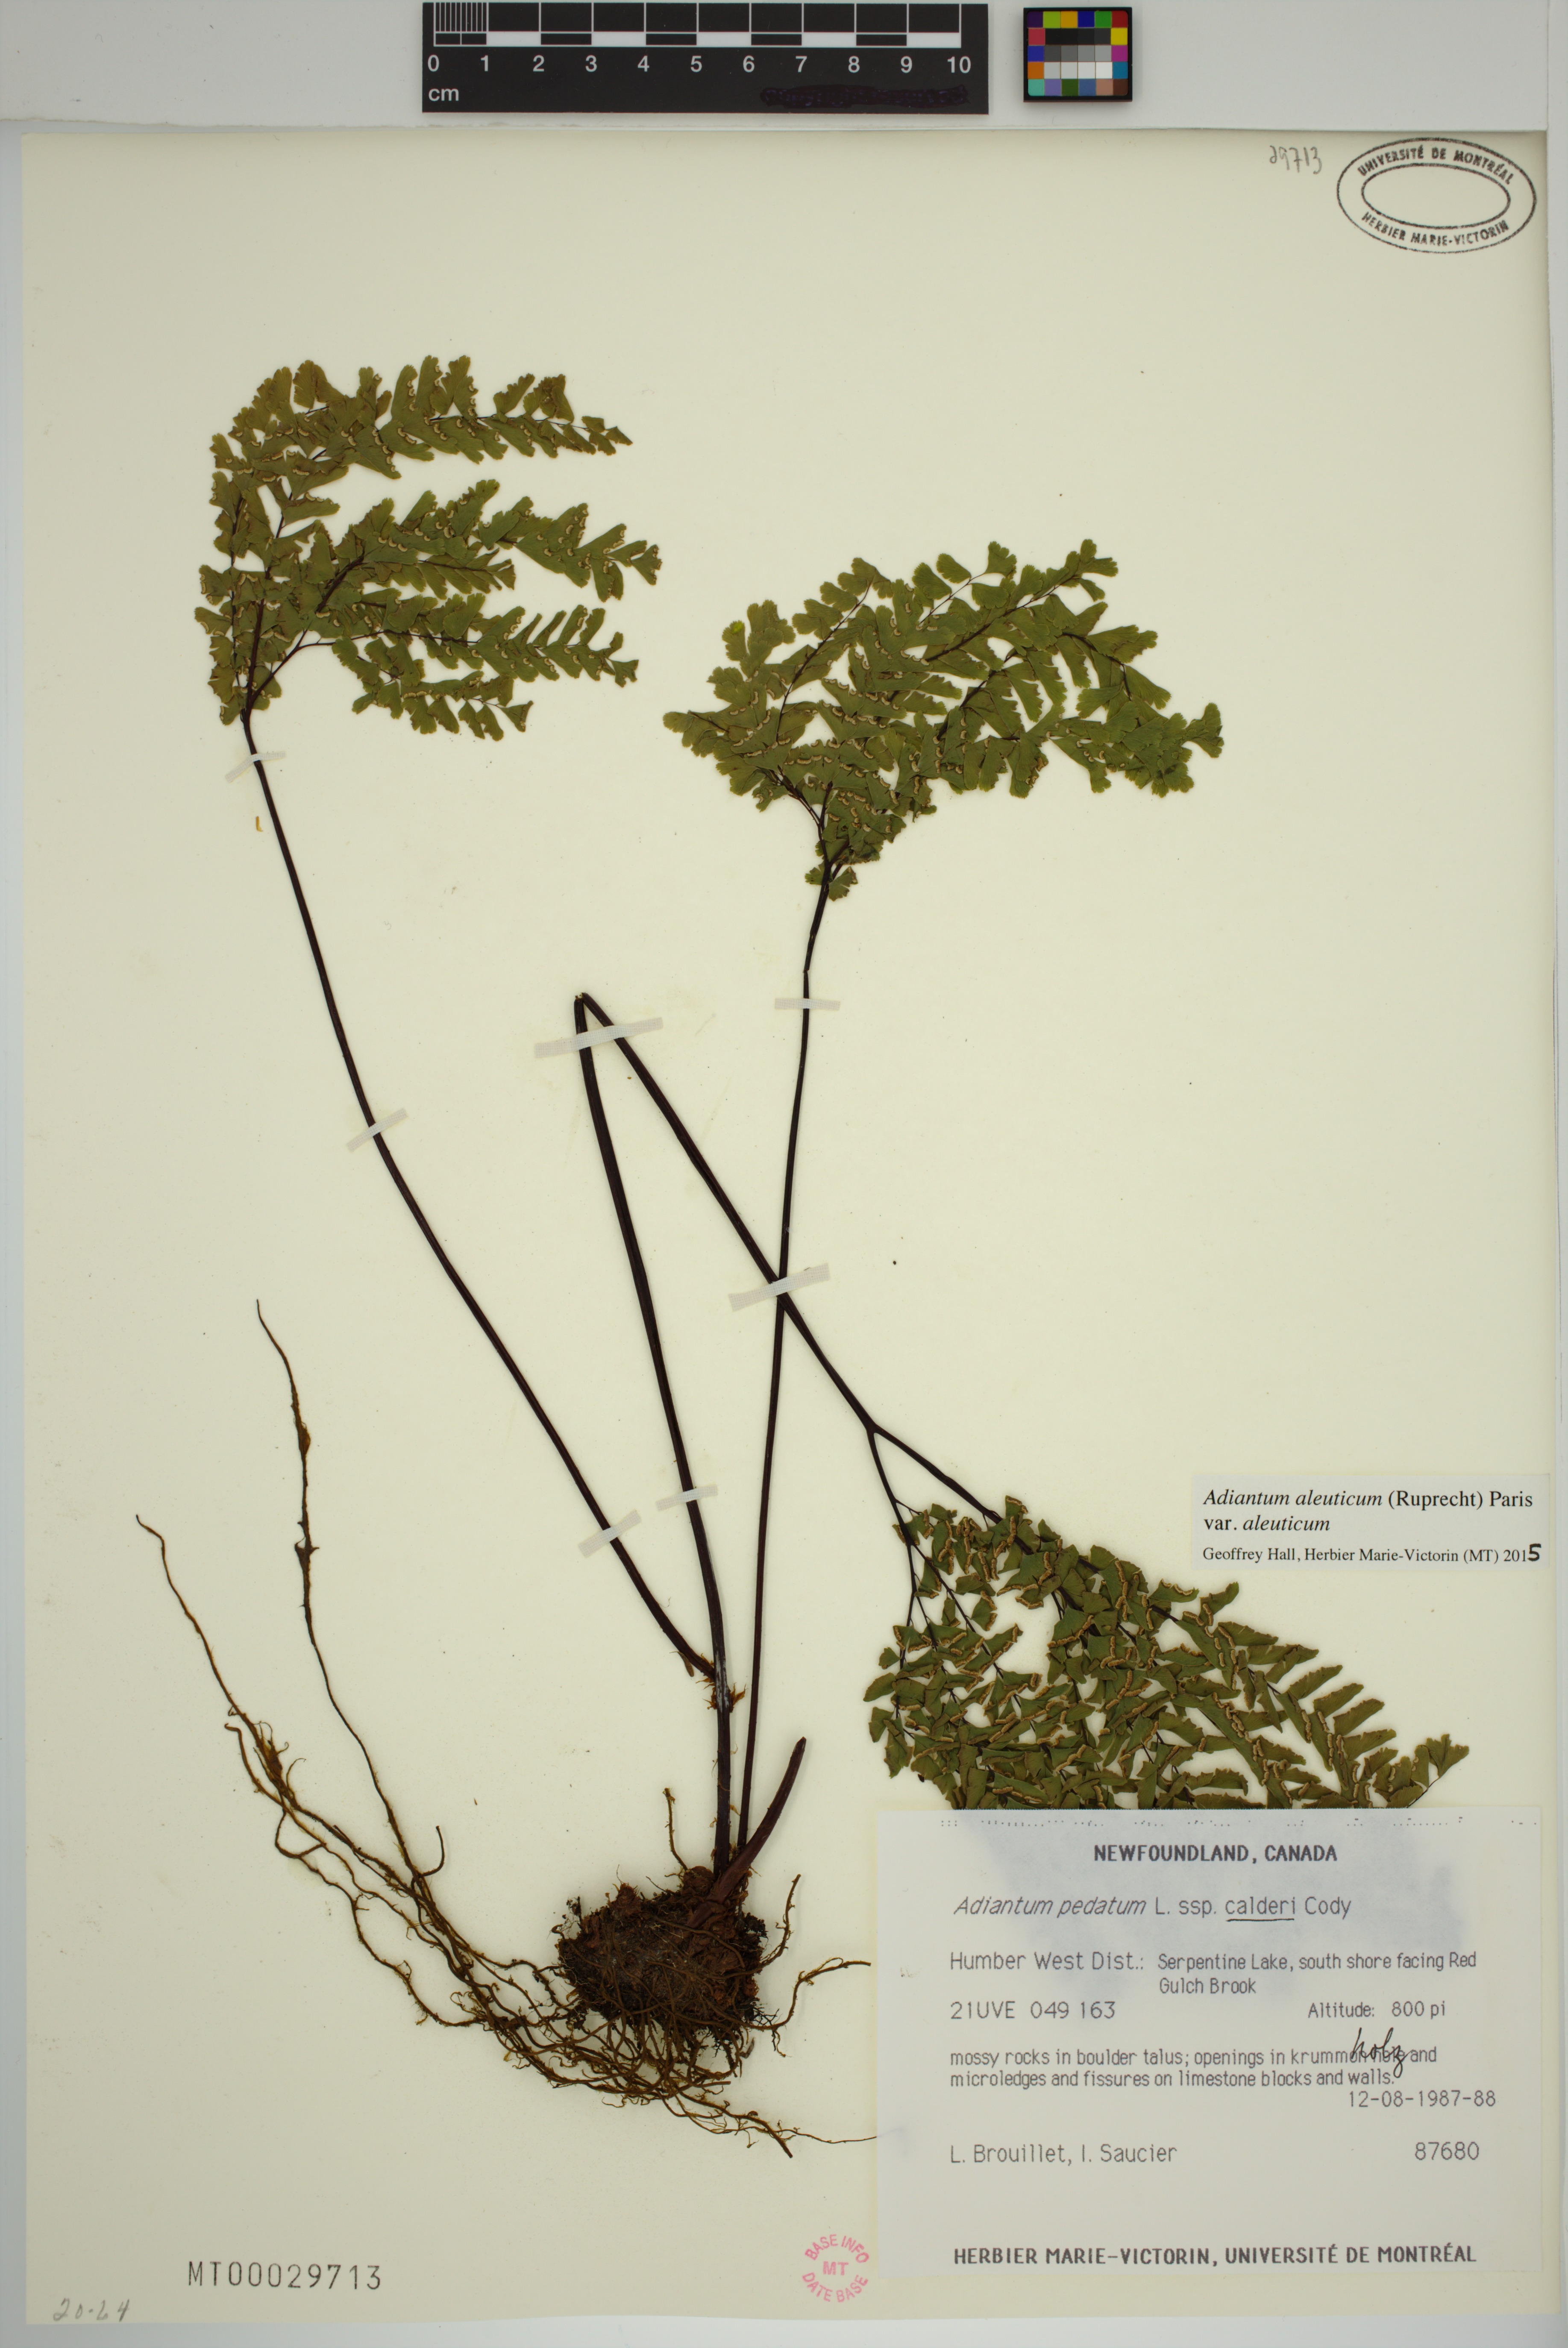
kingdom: Plantae
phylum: Tracheophyta
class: Polypodiopsida
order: Polypodiales
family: Pteridaceae
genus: Adiantum
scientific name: Adiantum aleuticum
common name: Aleutian maidenhair fern
